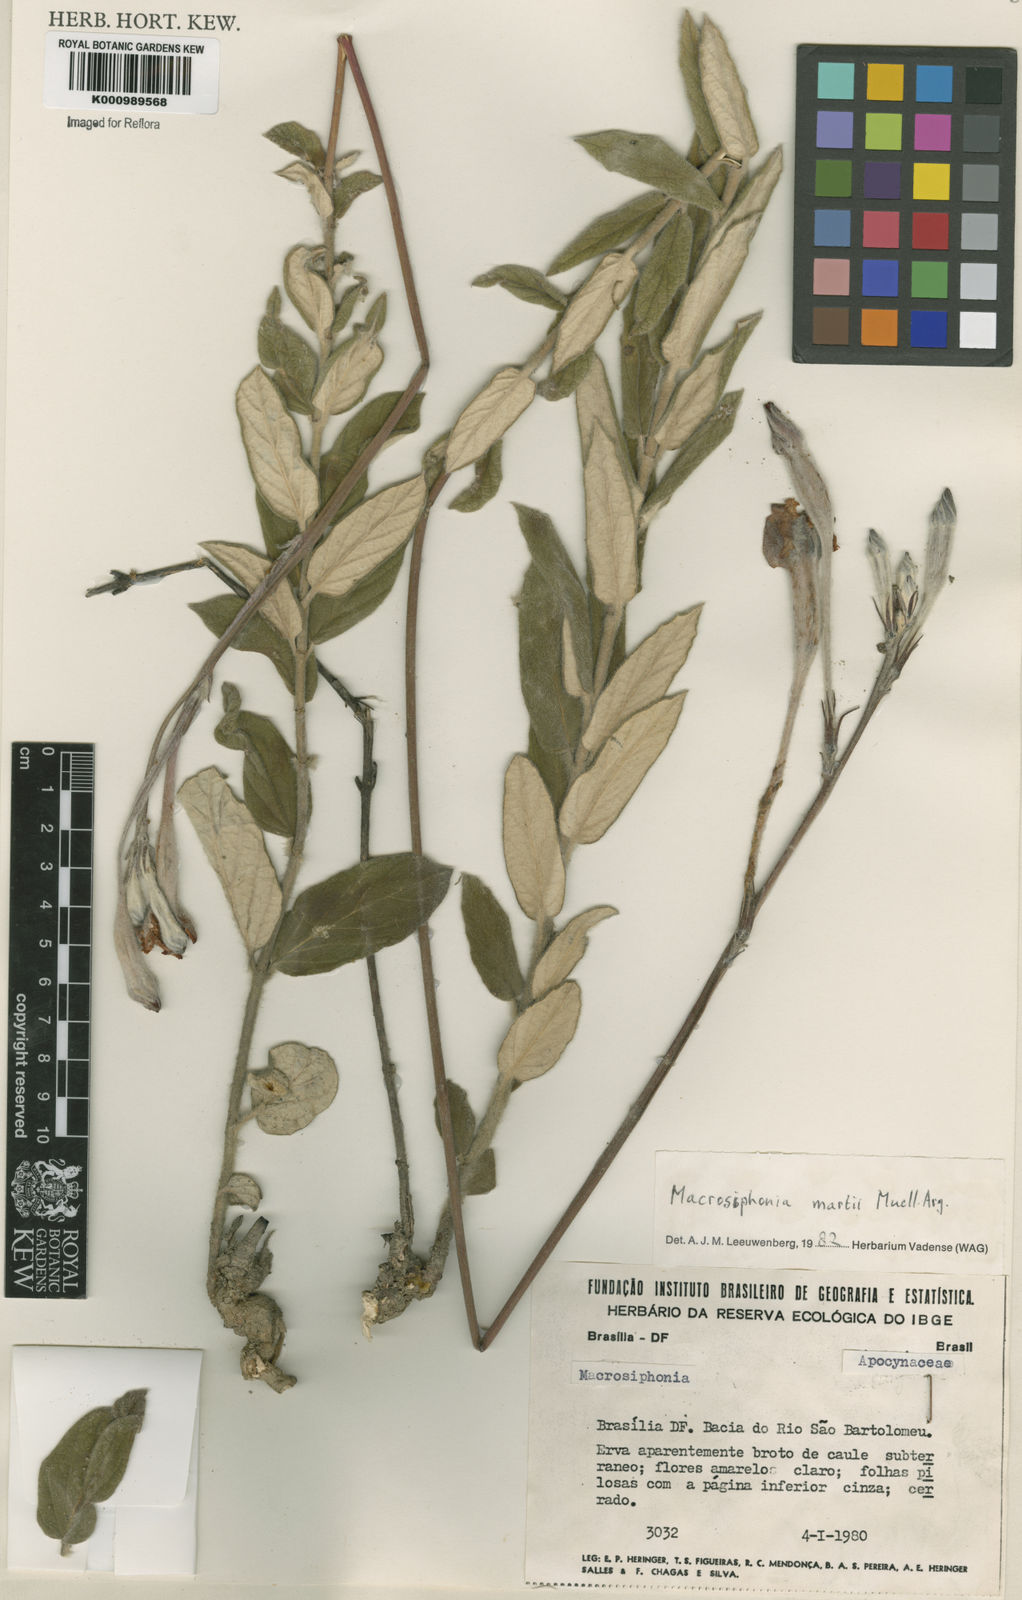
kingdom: Plantae
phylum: Tracheophyta
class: Magnoliopsida
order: Gentianales
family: Apocynaceae
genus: Mandevilla
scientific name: Mandevilla
